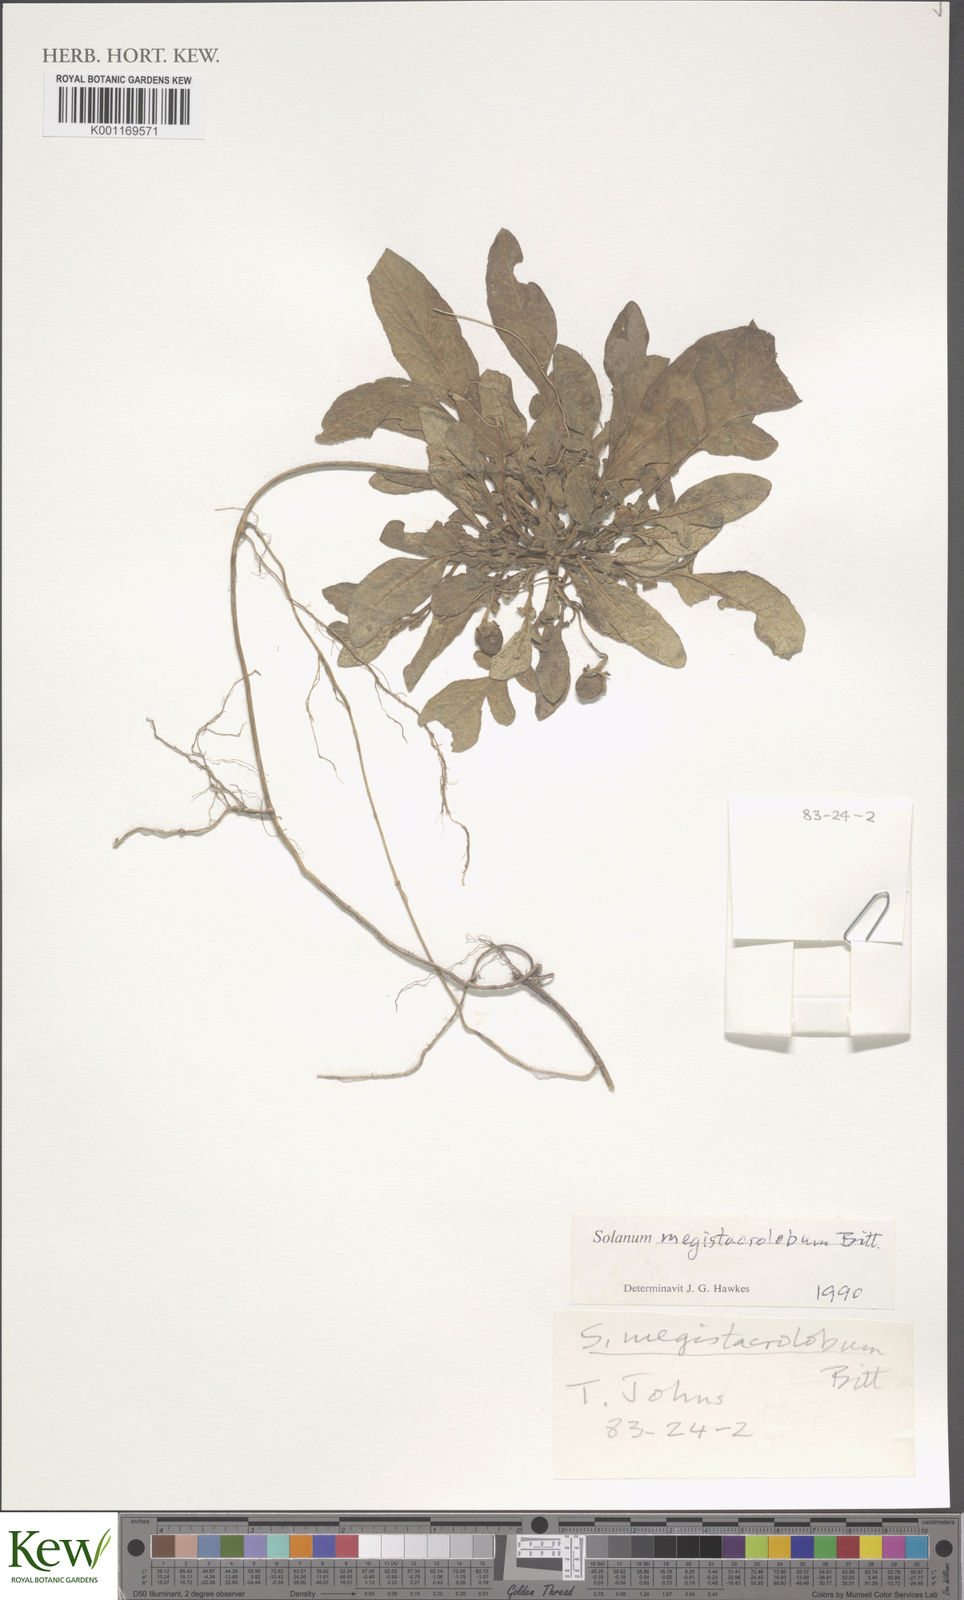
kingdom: Plantae
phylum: Tracheophyta
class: Magnoliopsida
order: Solanales
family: Solanaceae
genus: Solanum
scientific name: Solanum boliviense
